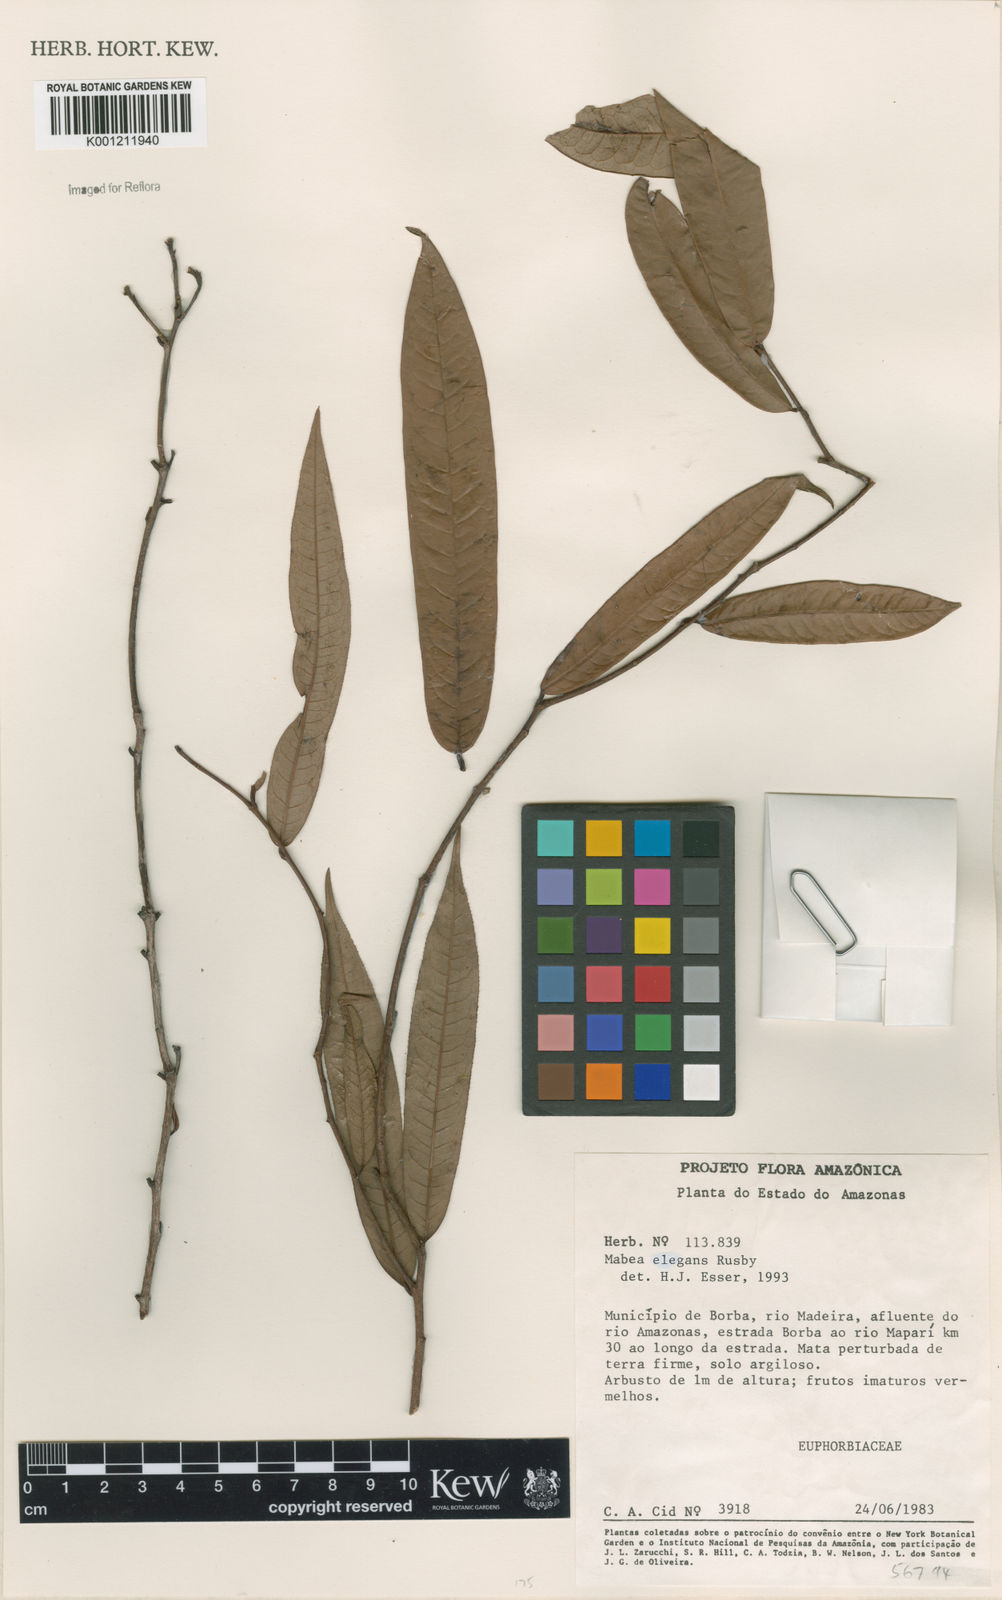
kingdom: Plantae
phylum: Tracheophyta
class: Magnoliopsida
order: Malpighiales
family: Euphorbiaceae
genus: Mabea
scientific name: Mabea elegans
